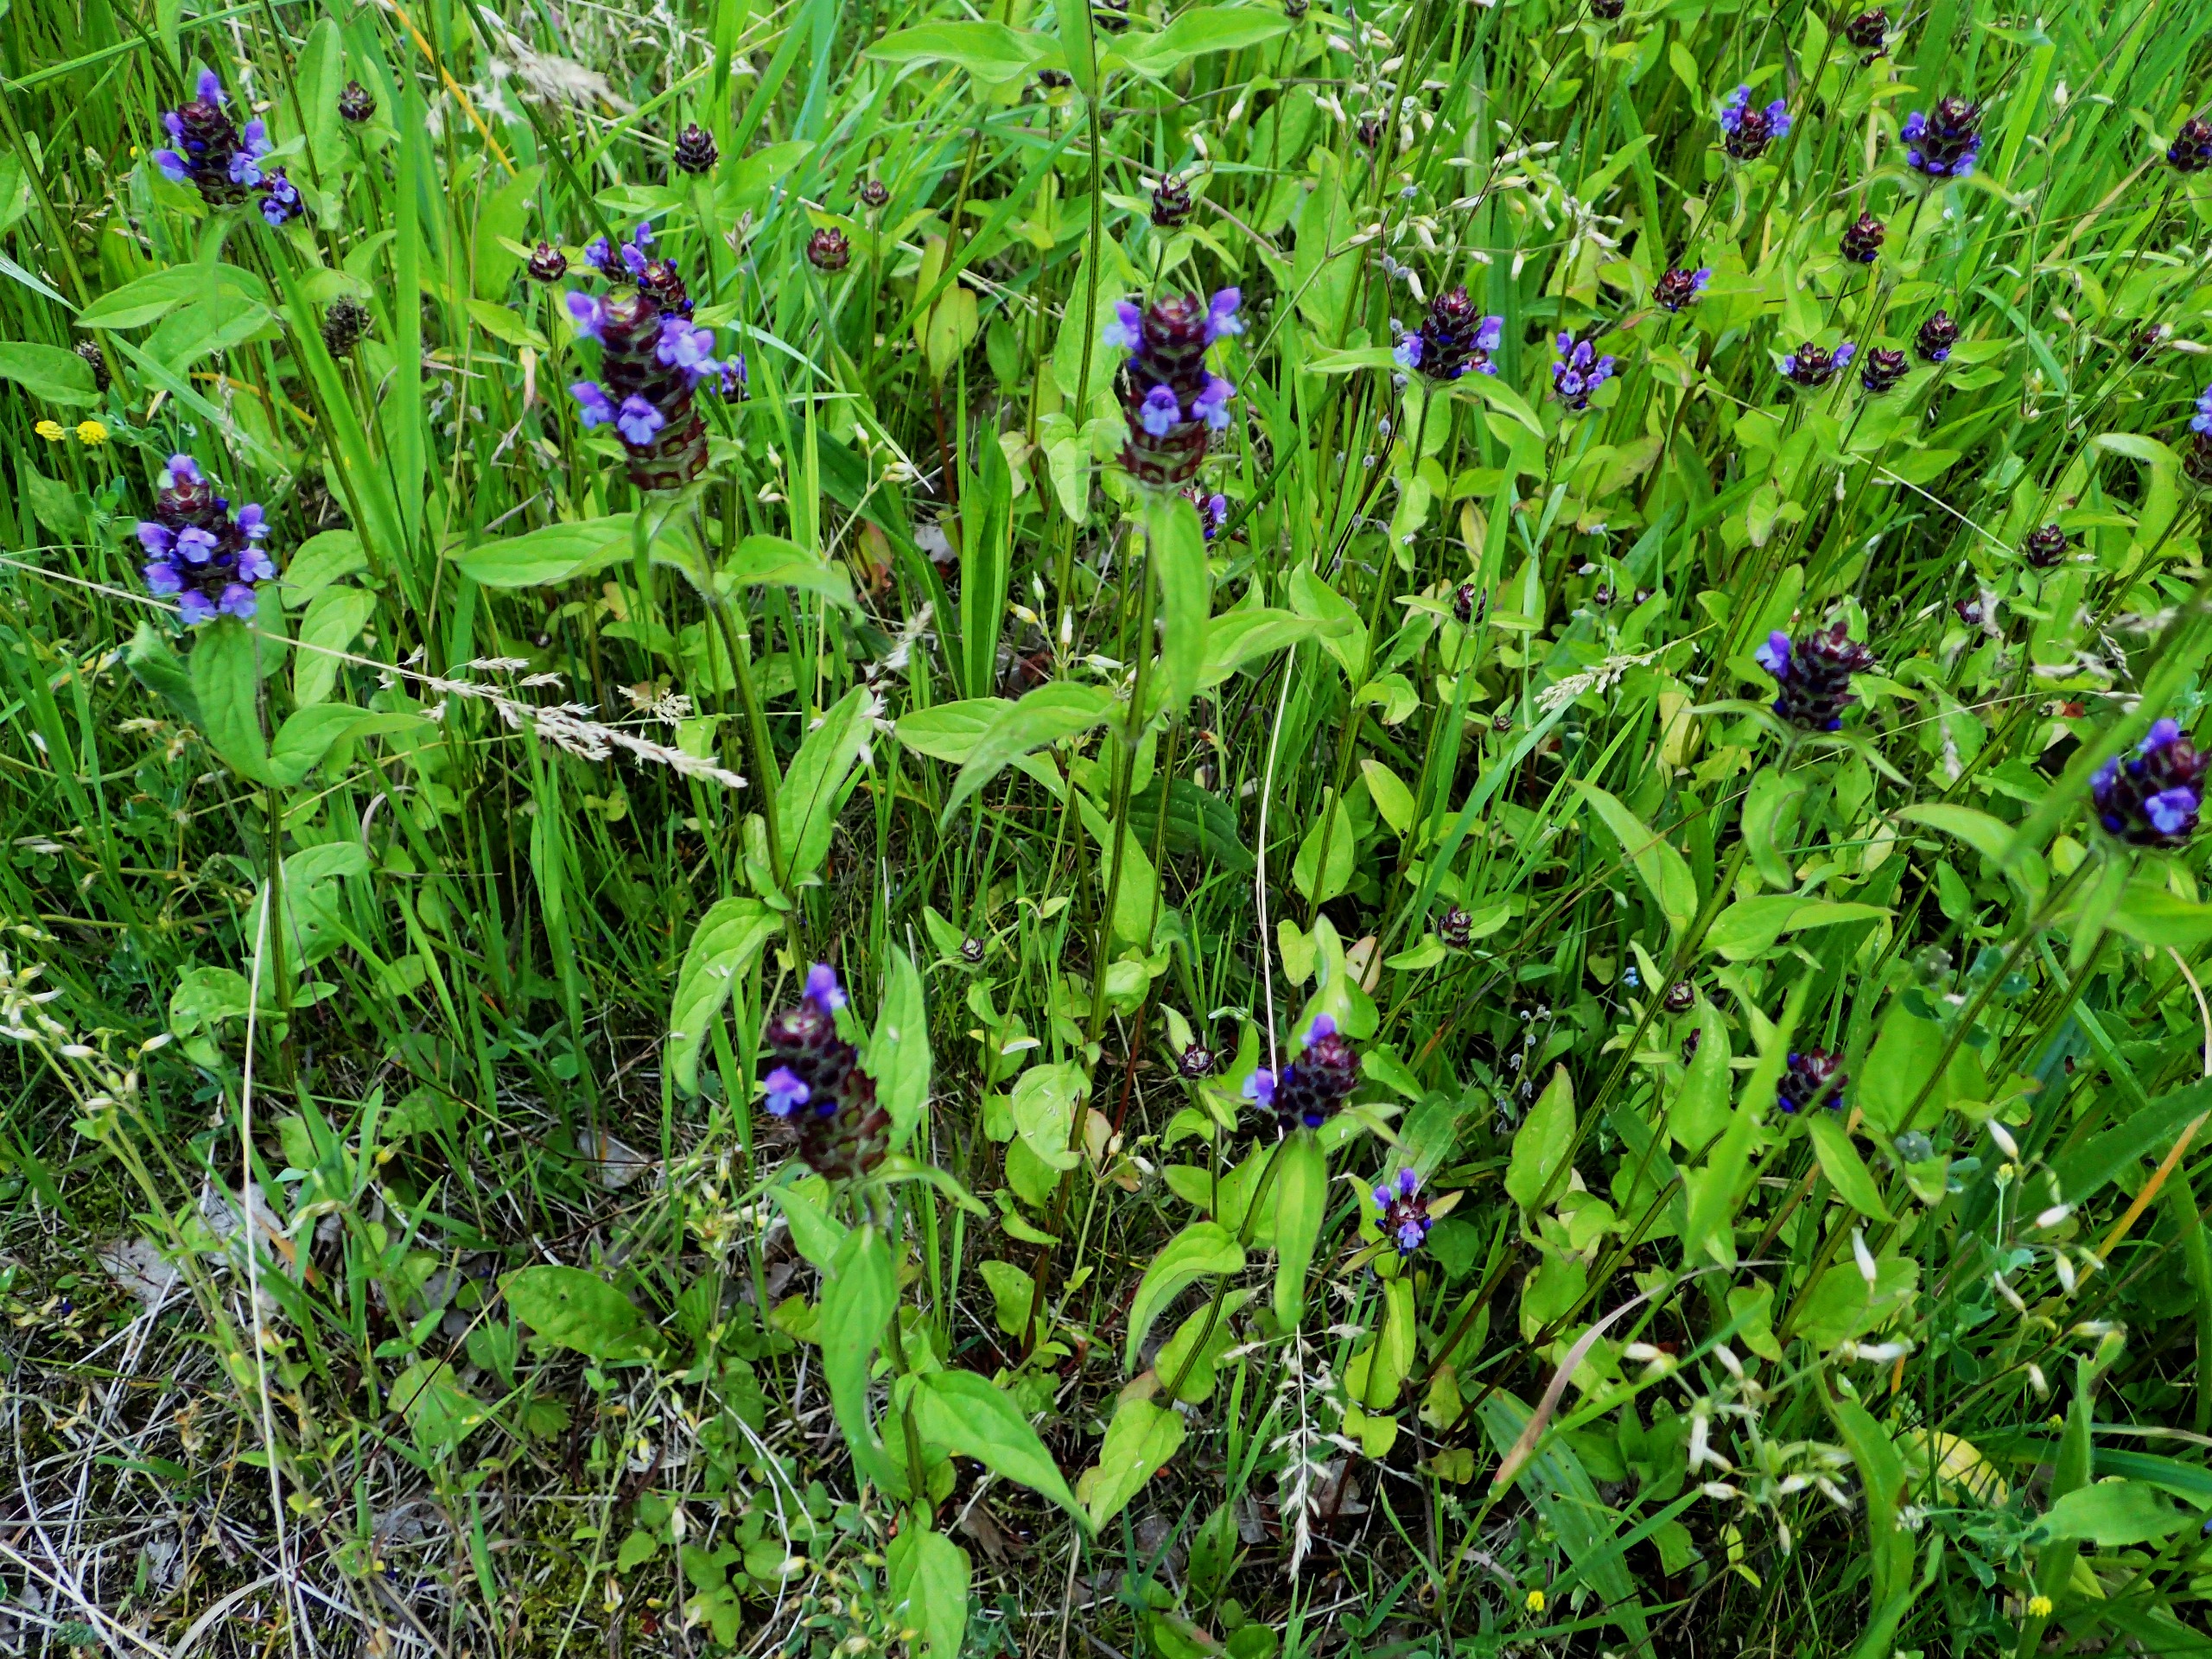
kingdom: Plantae
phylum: Tracheophyta
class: Magnoliopsida
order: Lamiales
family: Lamiaceae
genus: Prunella
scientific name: Prunella vulgaris
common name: Almindelig brunelle
